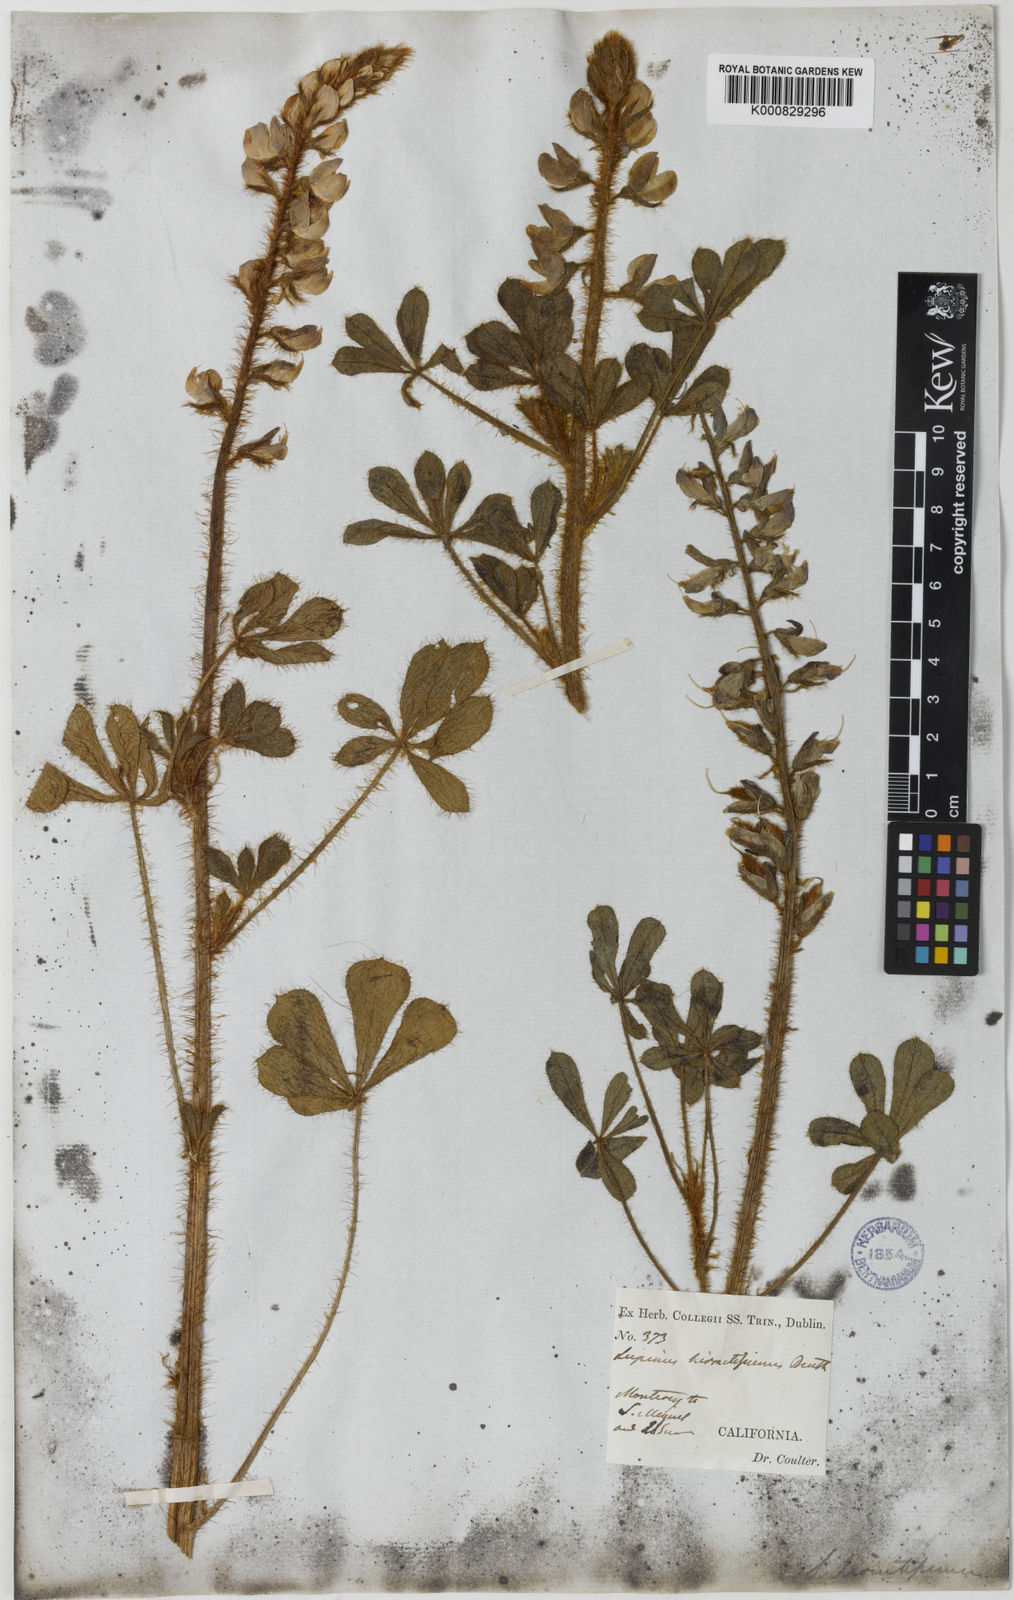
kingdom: Plantae
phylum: Tracheophyta
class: Magnoliopsida
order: Fabales
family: Fabaceae
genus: Lupinus
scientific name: Lupinus hirsutissimus
